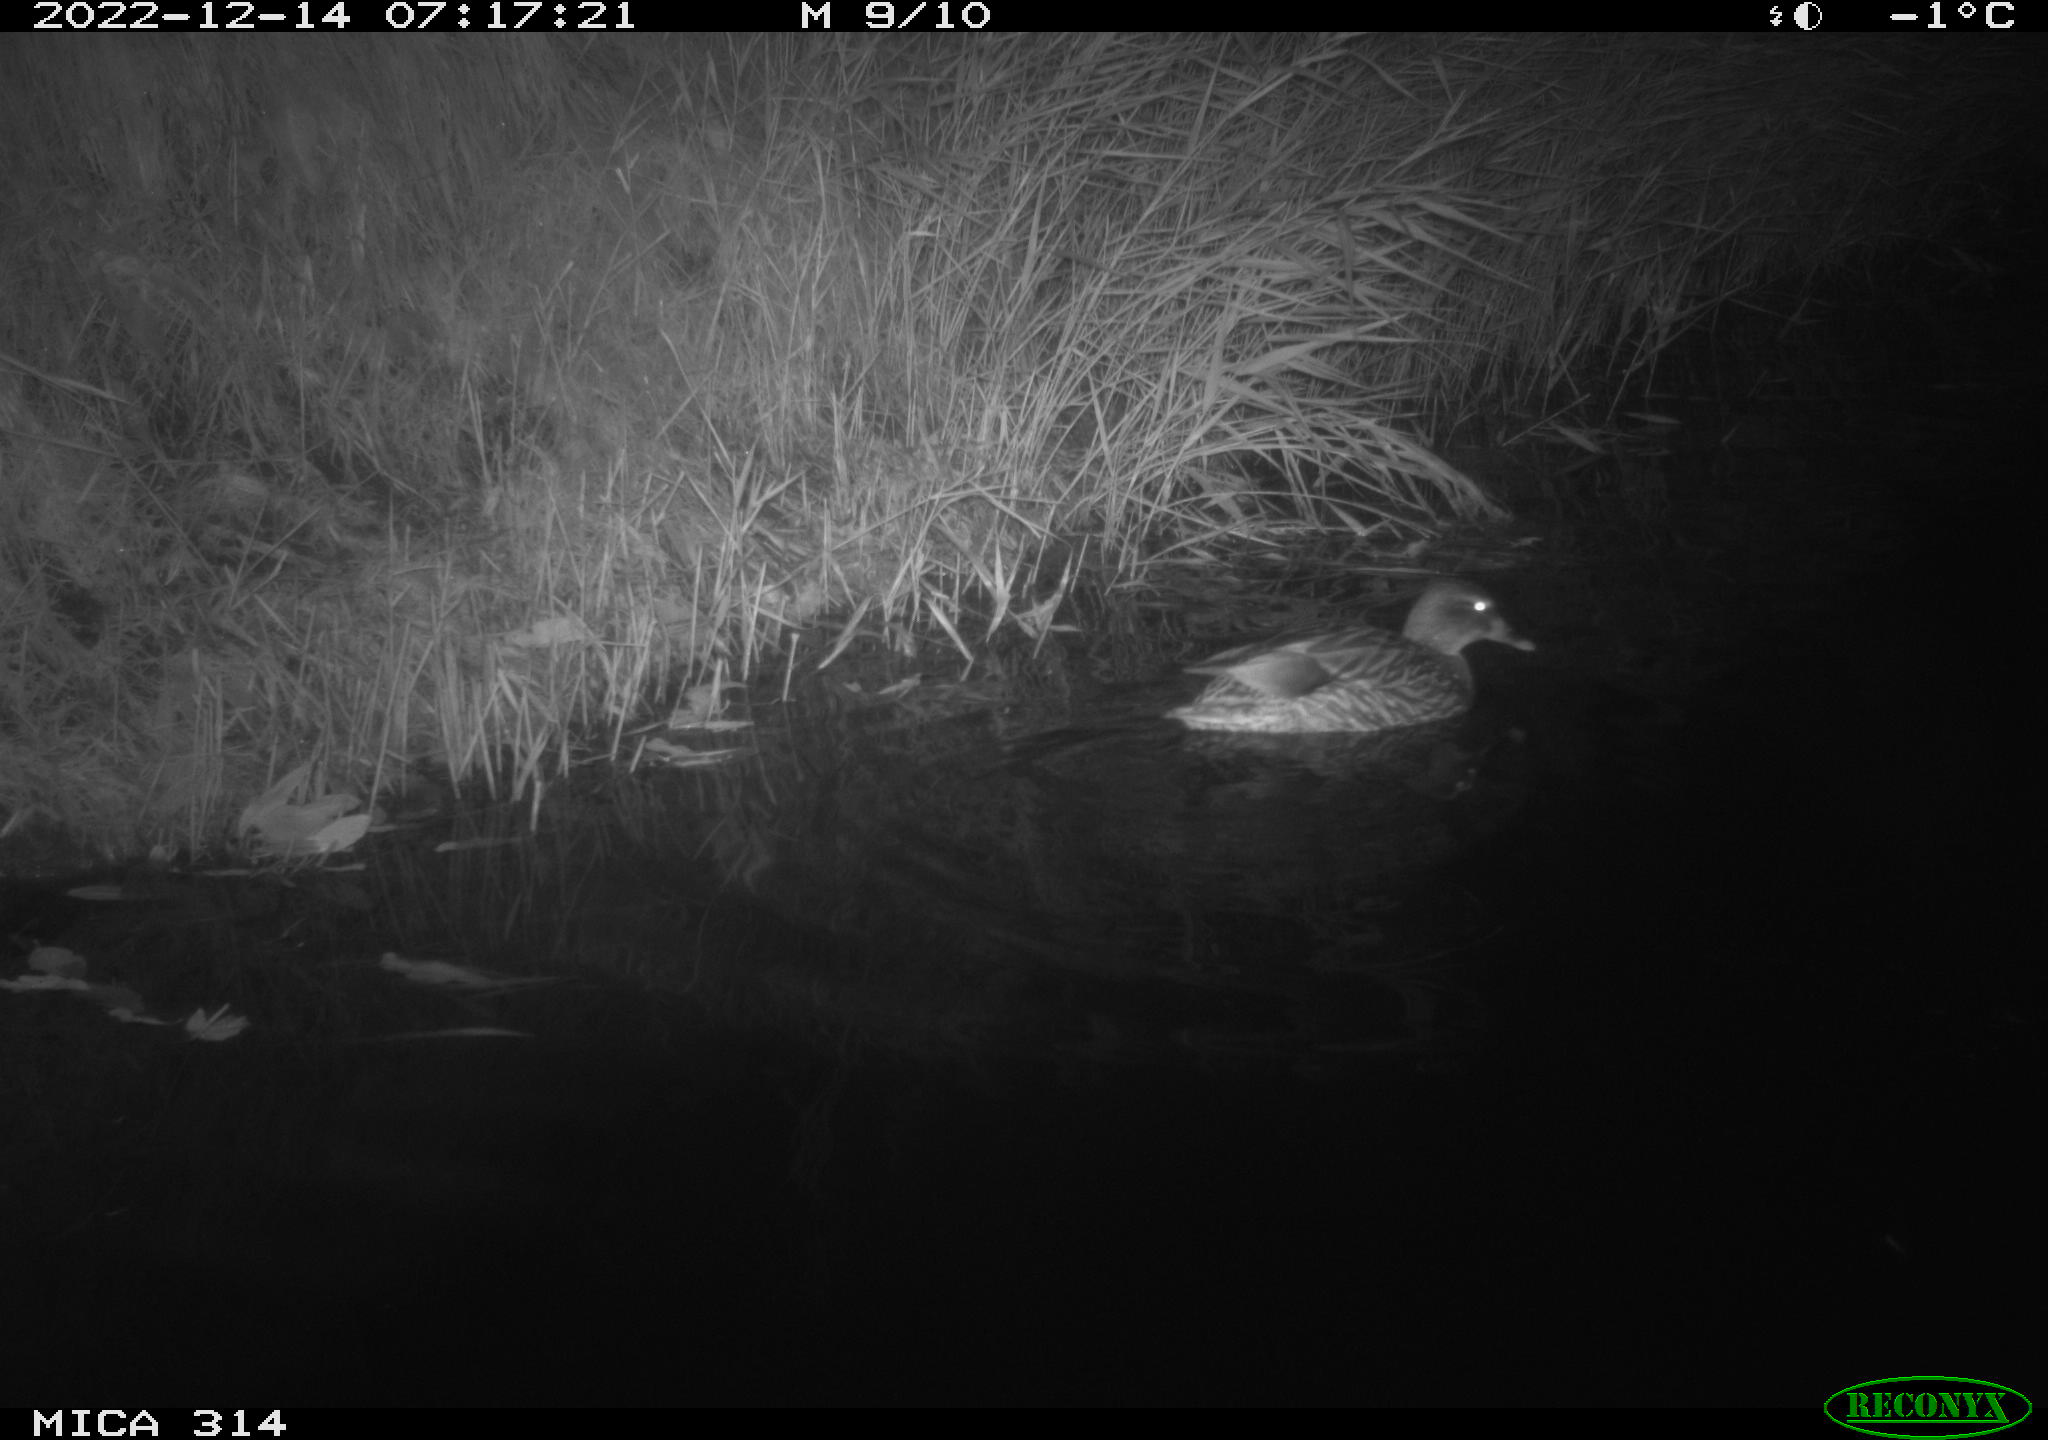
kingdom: Animalia
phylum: Chordata
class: Aves
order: Anseriformes
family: Anatidae
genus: Anas
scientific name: Anas
